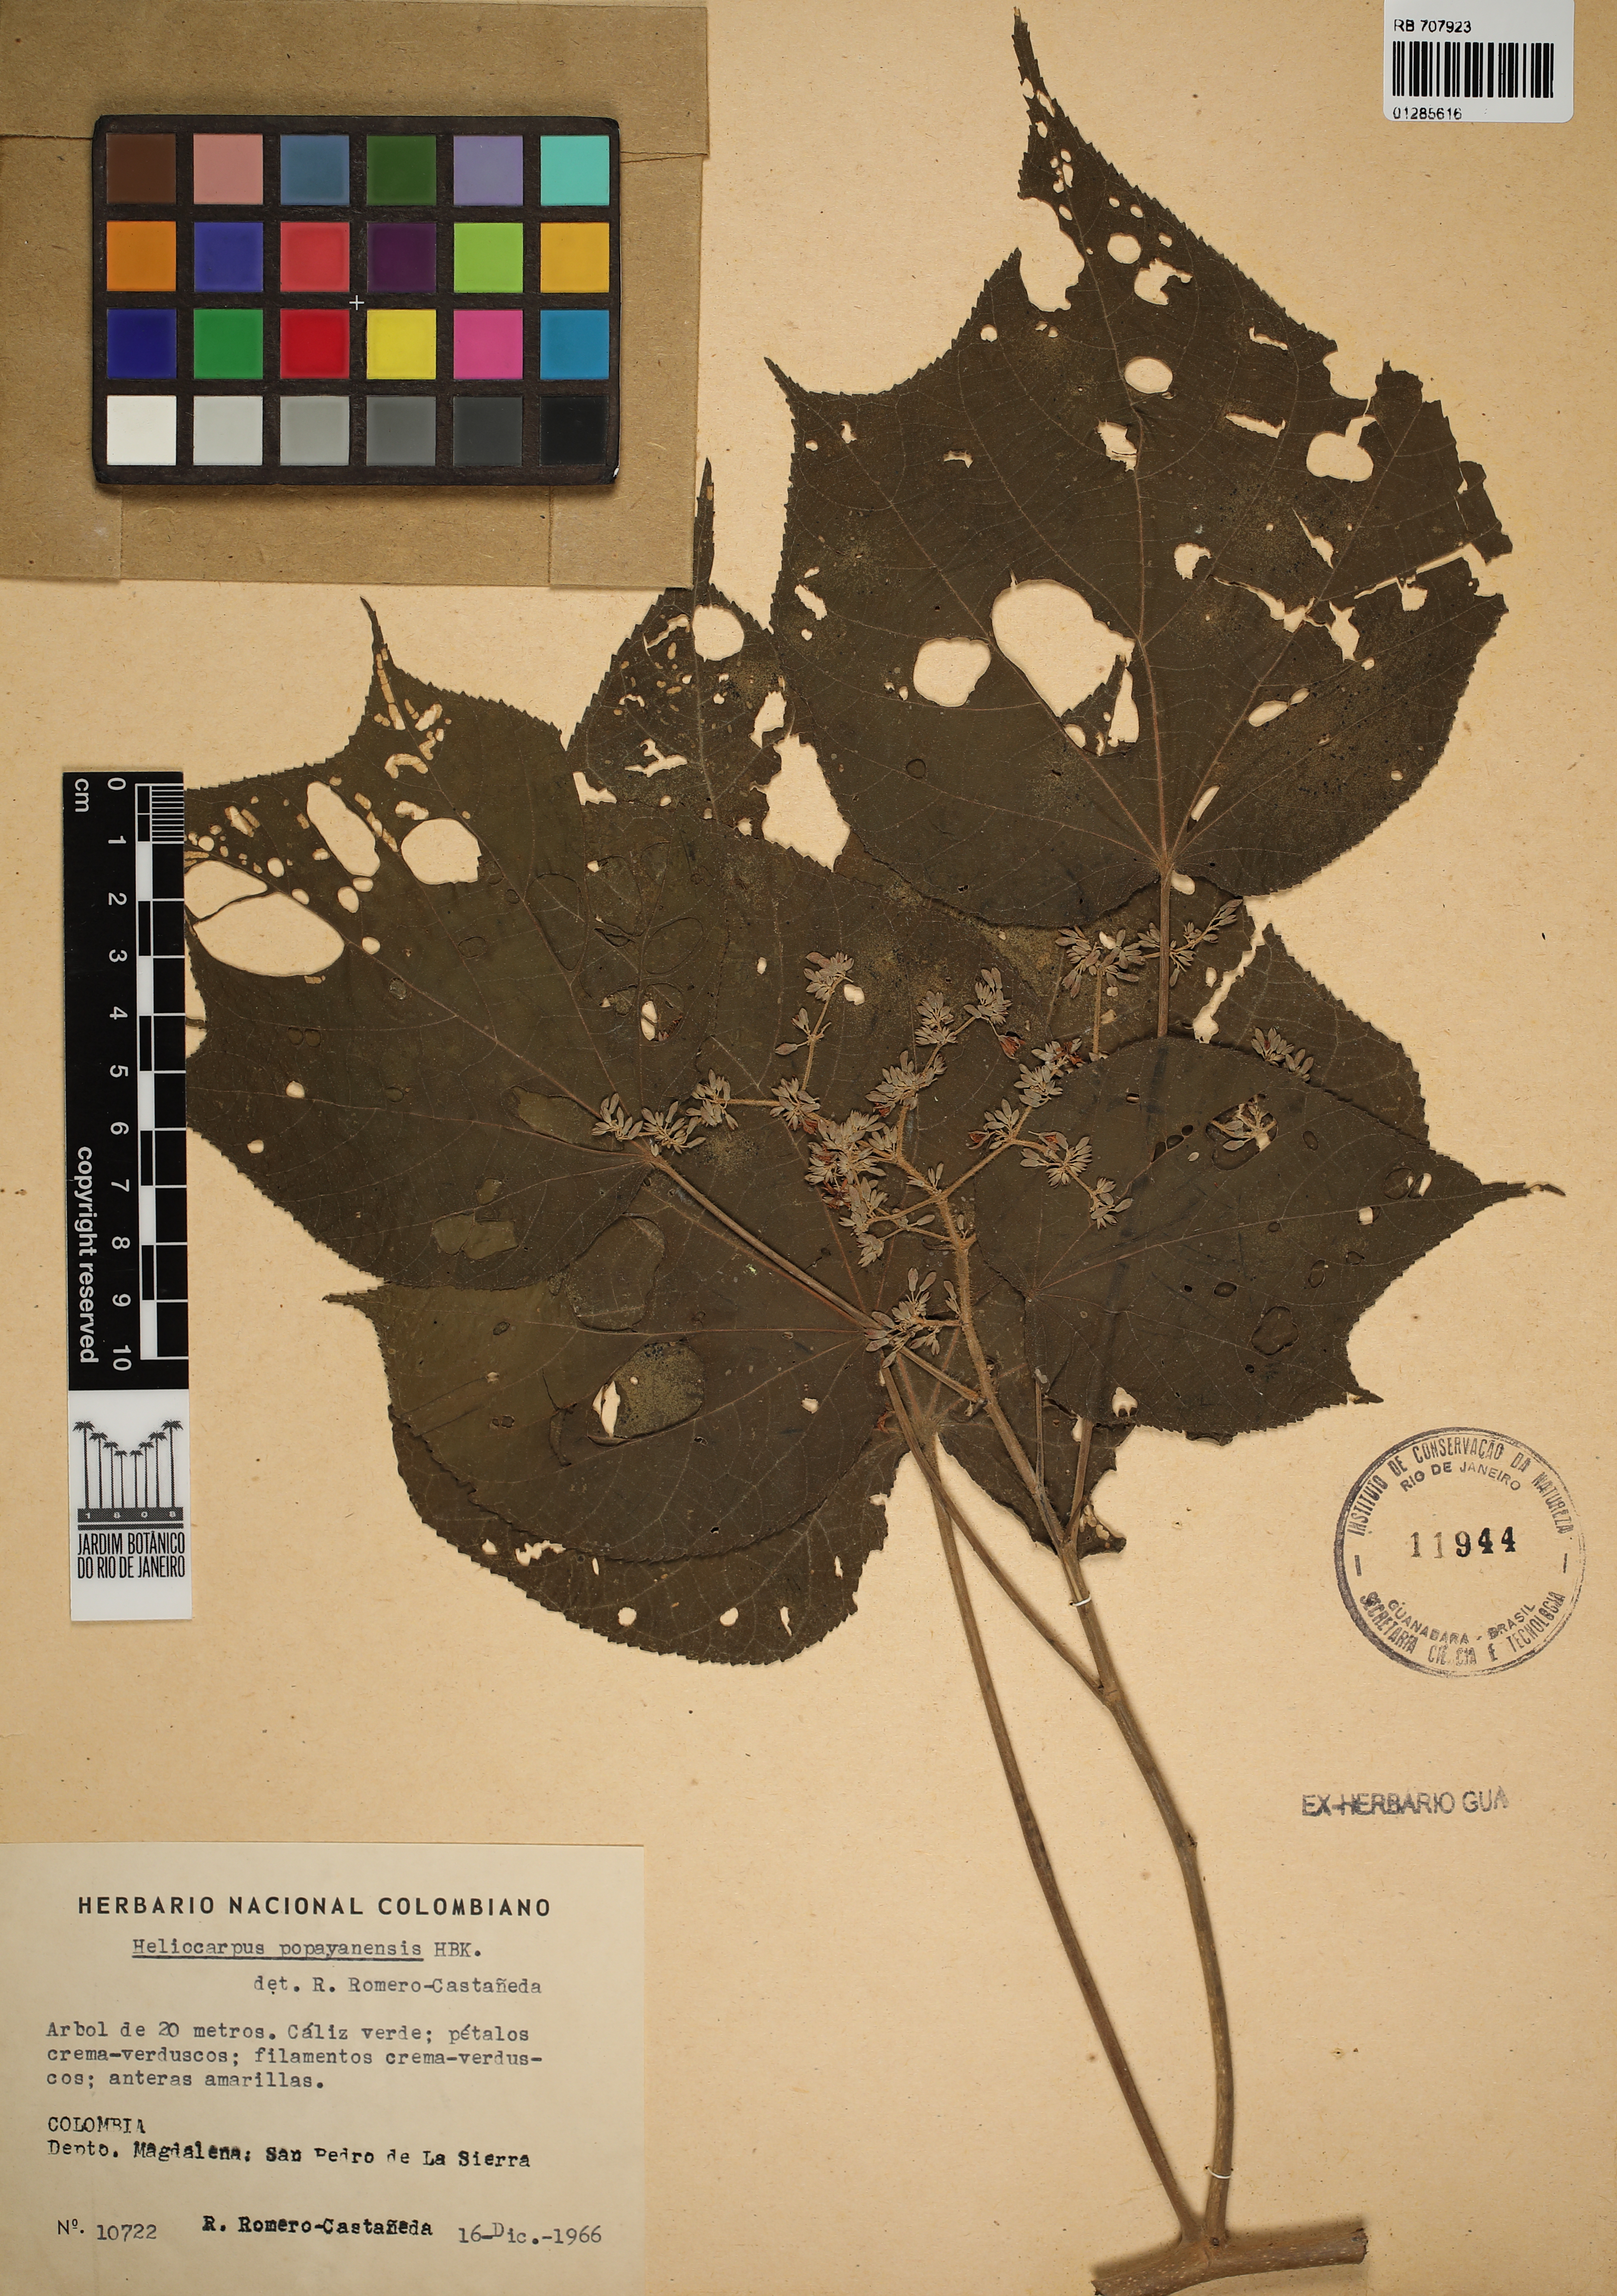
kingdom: Plantae
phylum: Tracheophyta
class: Magnoliopsida
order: Malvales
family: Malvaceae
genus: Heliocarpus
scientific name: Heliocarpus americanus
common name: White moho
